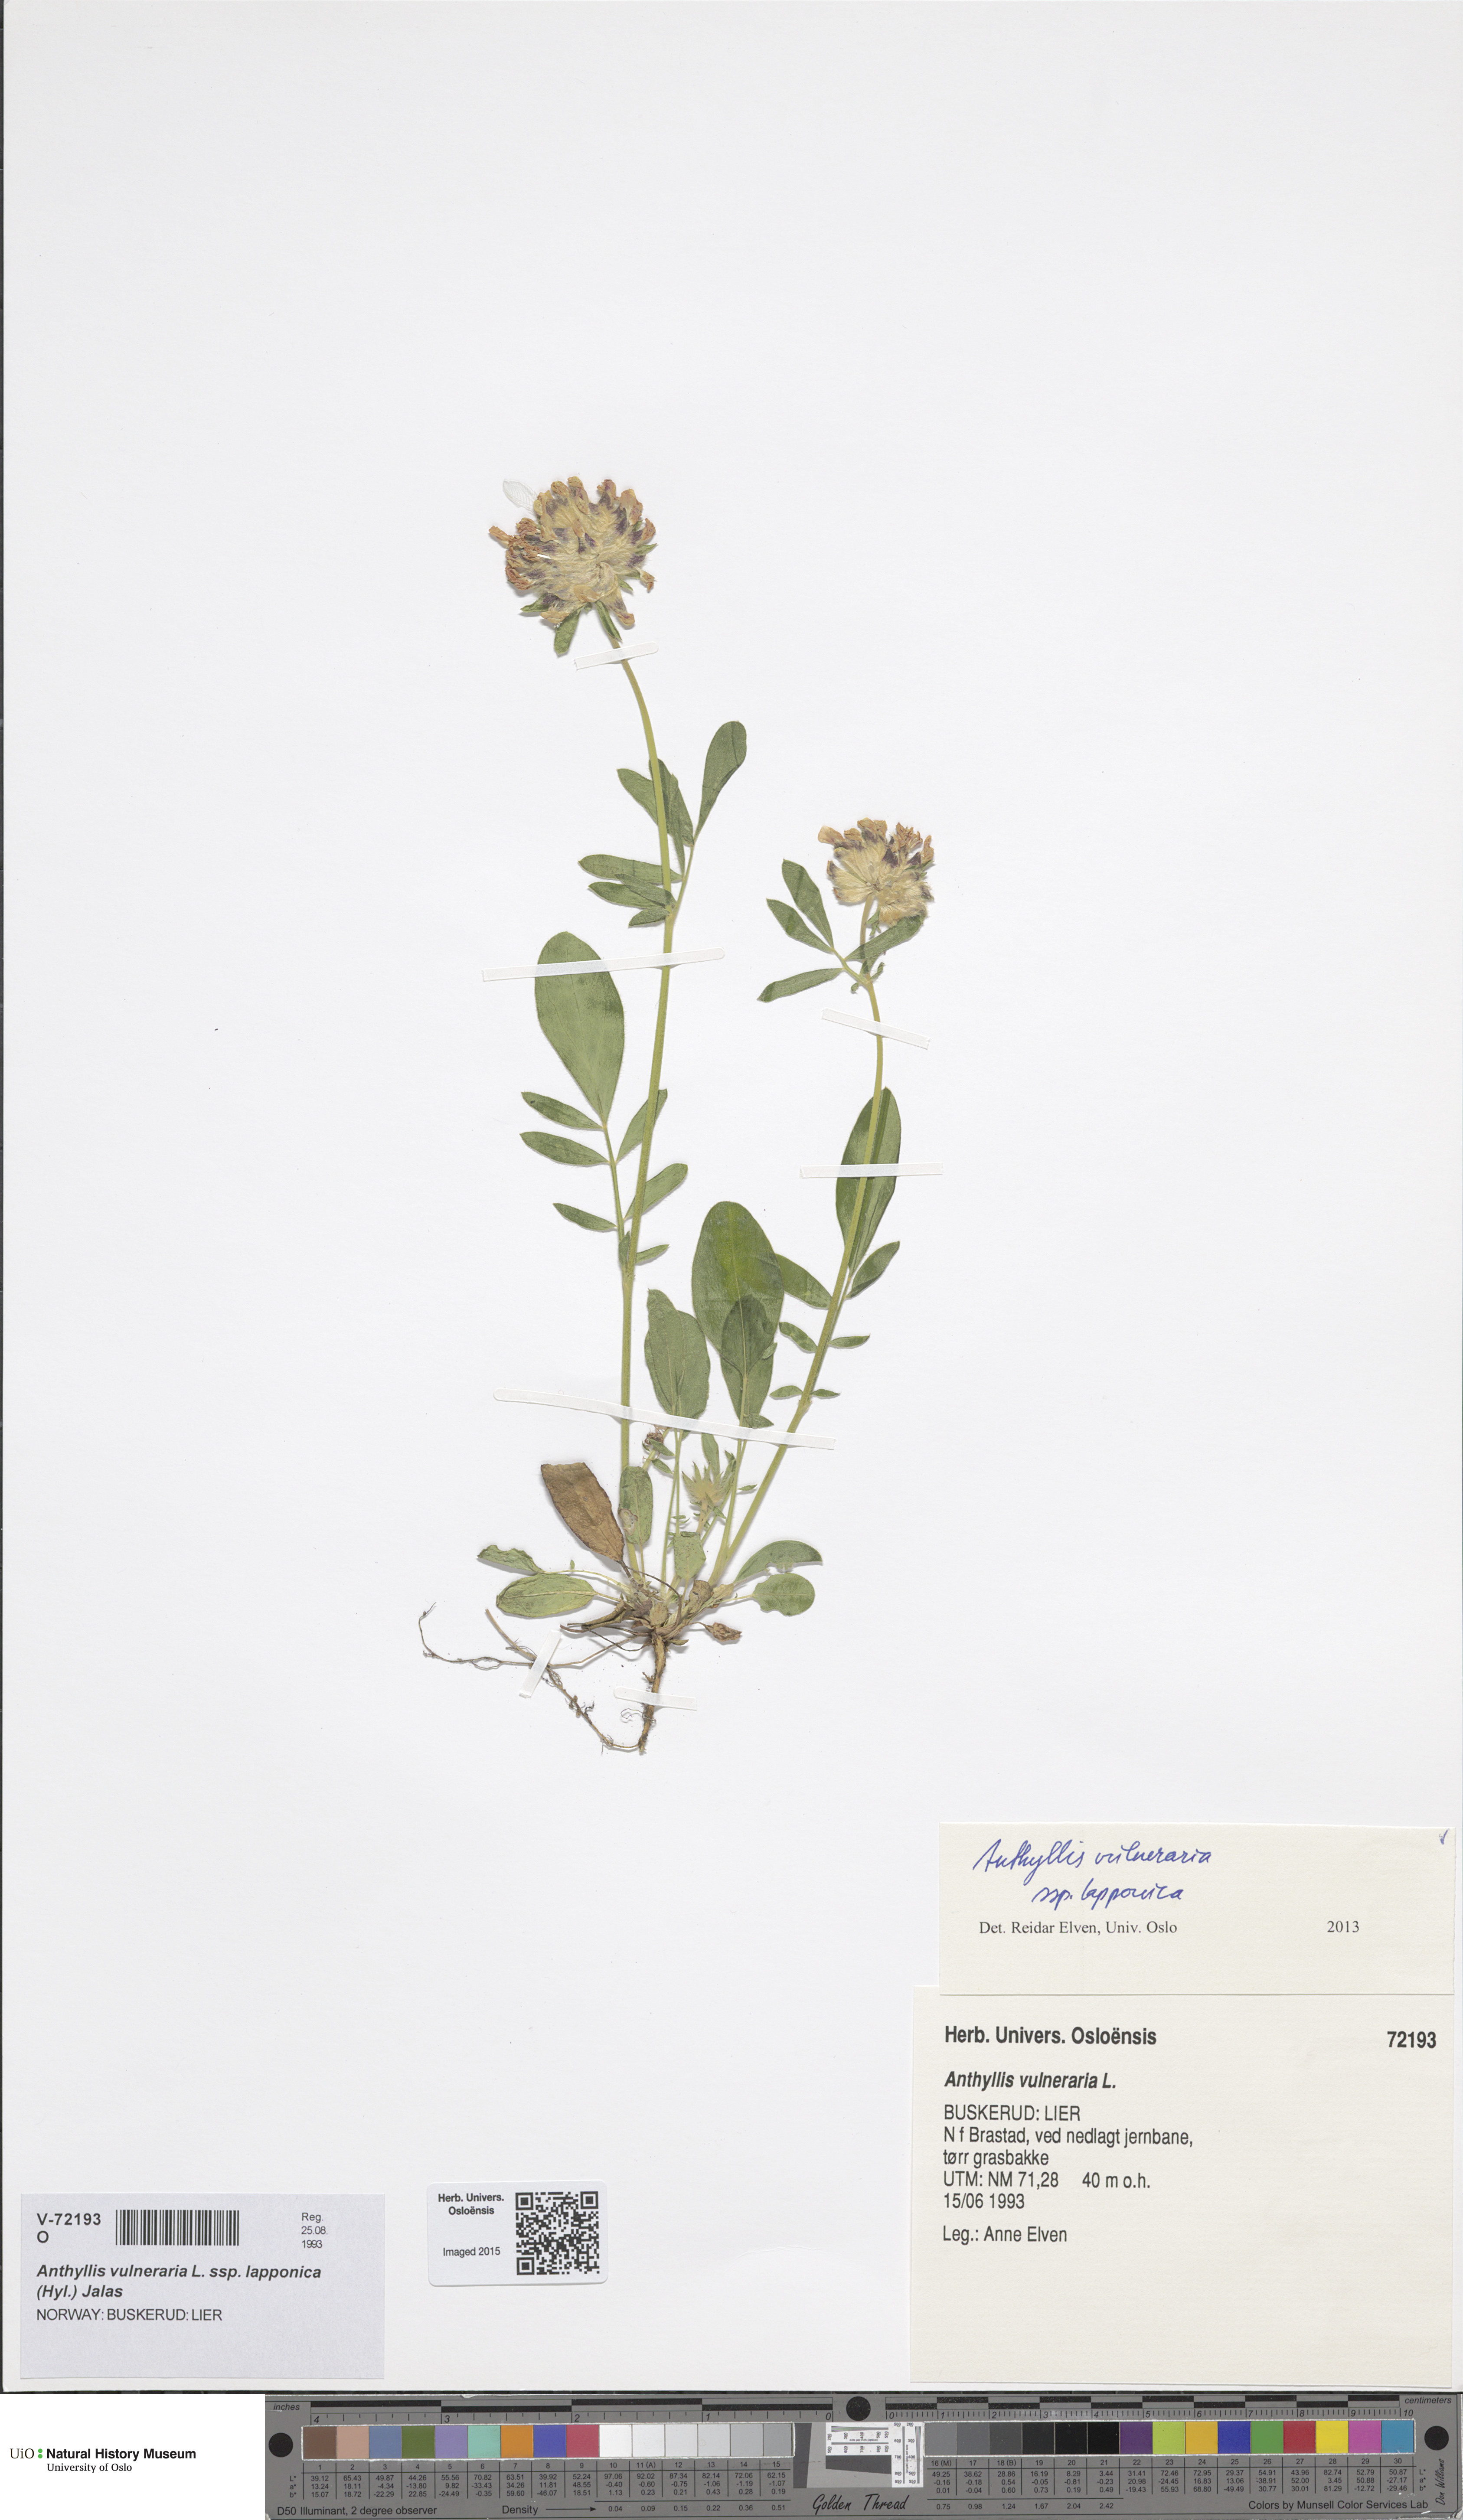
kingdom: Plantae
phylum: Tracheophyta
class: Magnoliopsida
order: Fabales
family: Fabaceae
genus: Anthyllis
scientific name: Anthyllis vulneraria
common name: Kidney vetch
